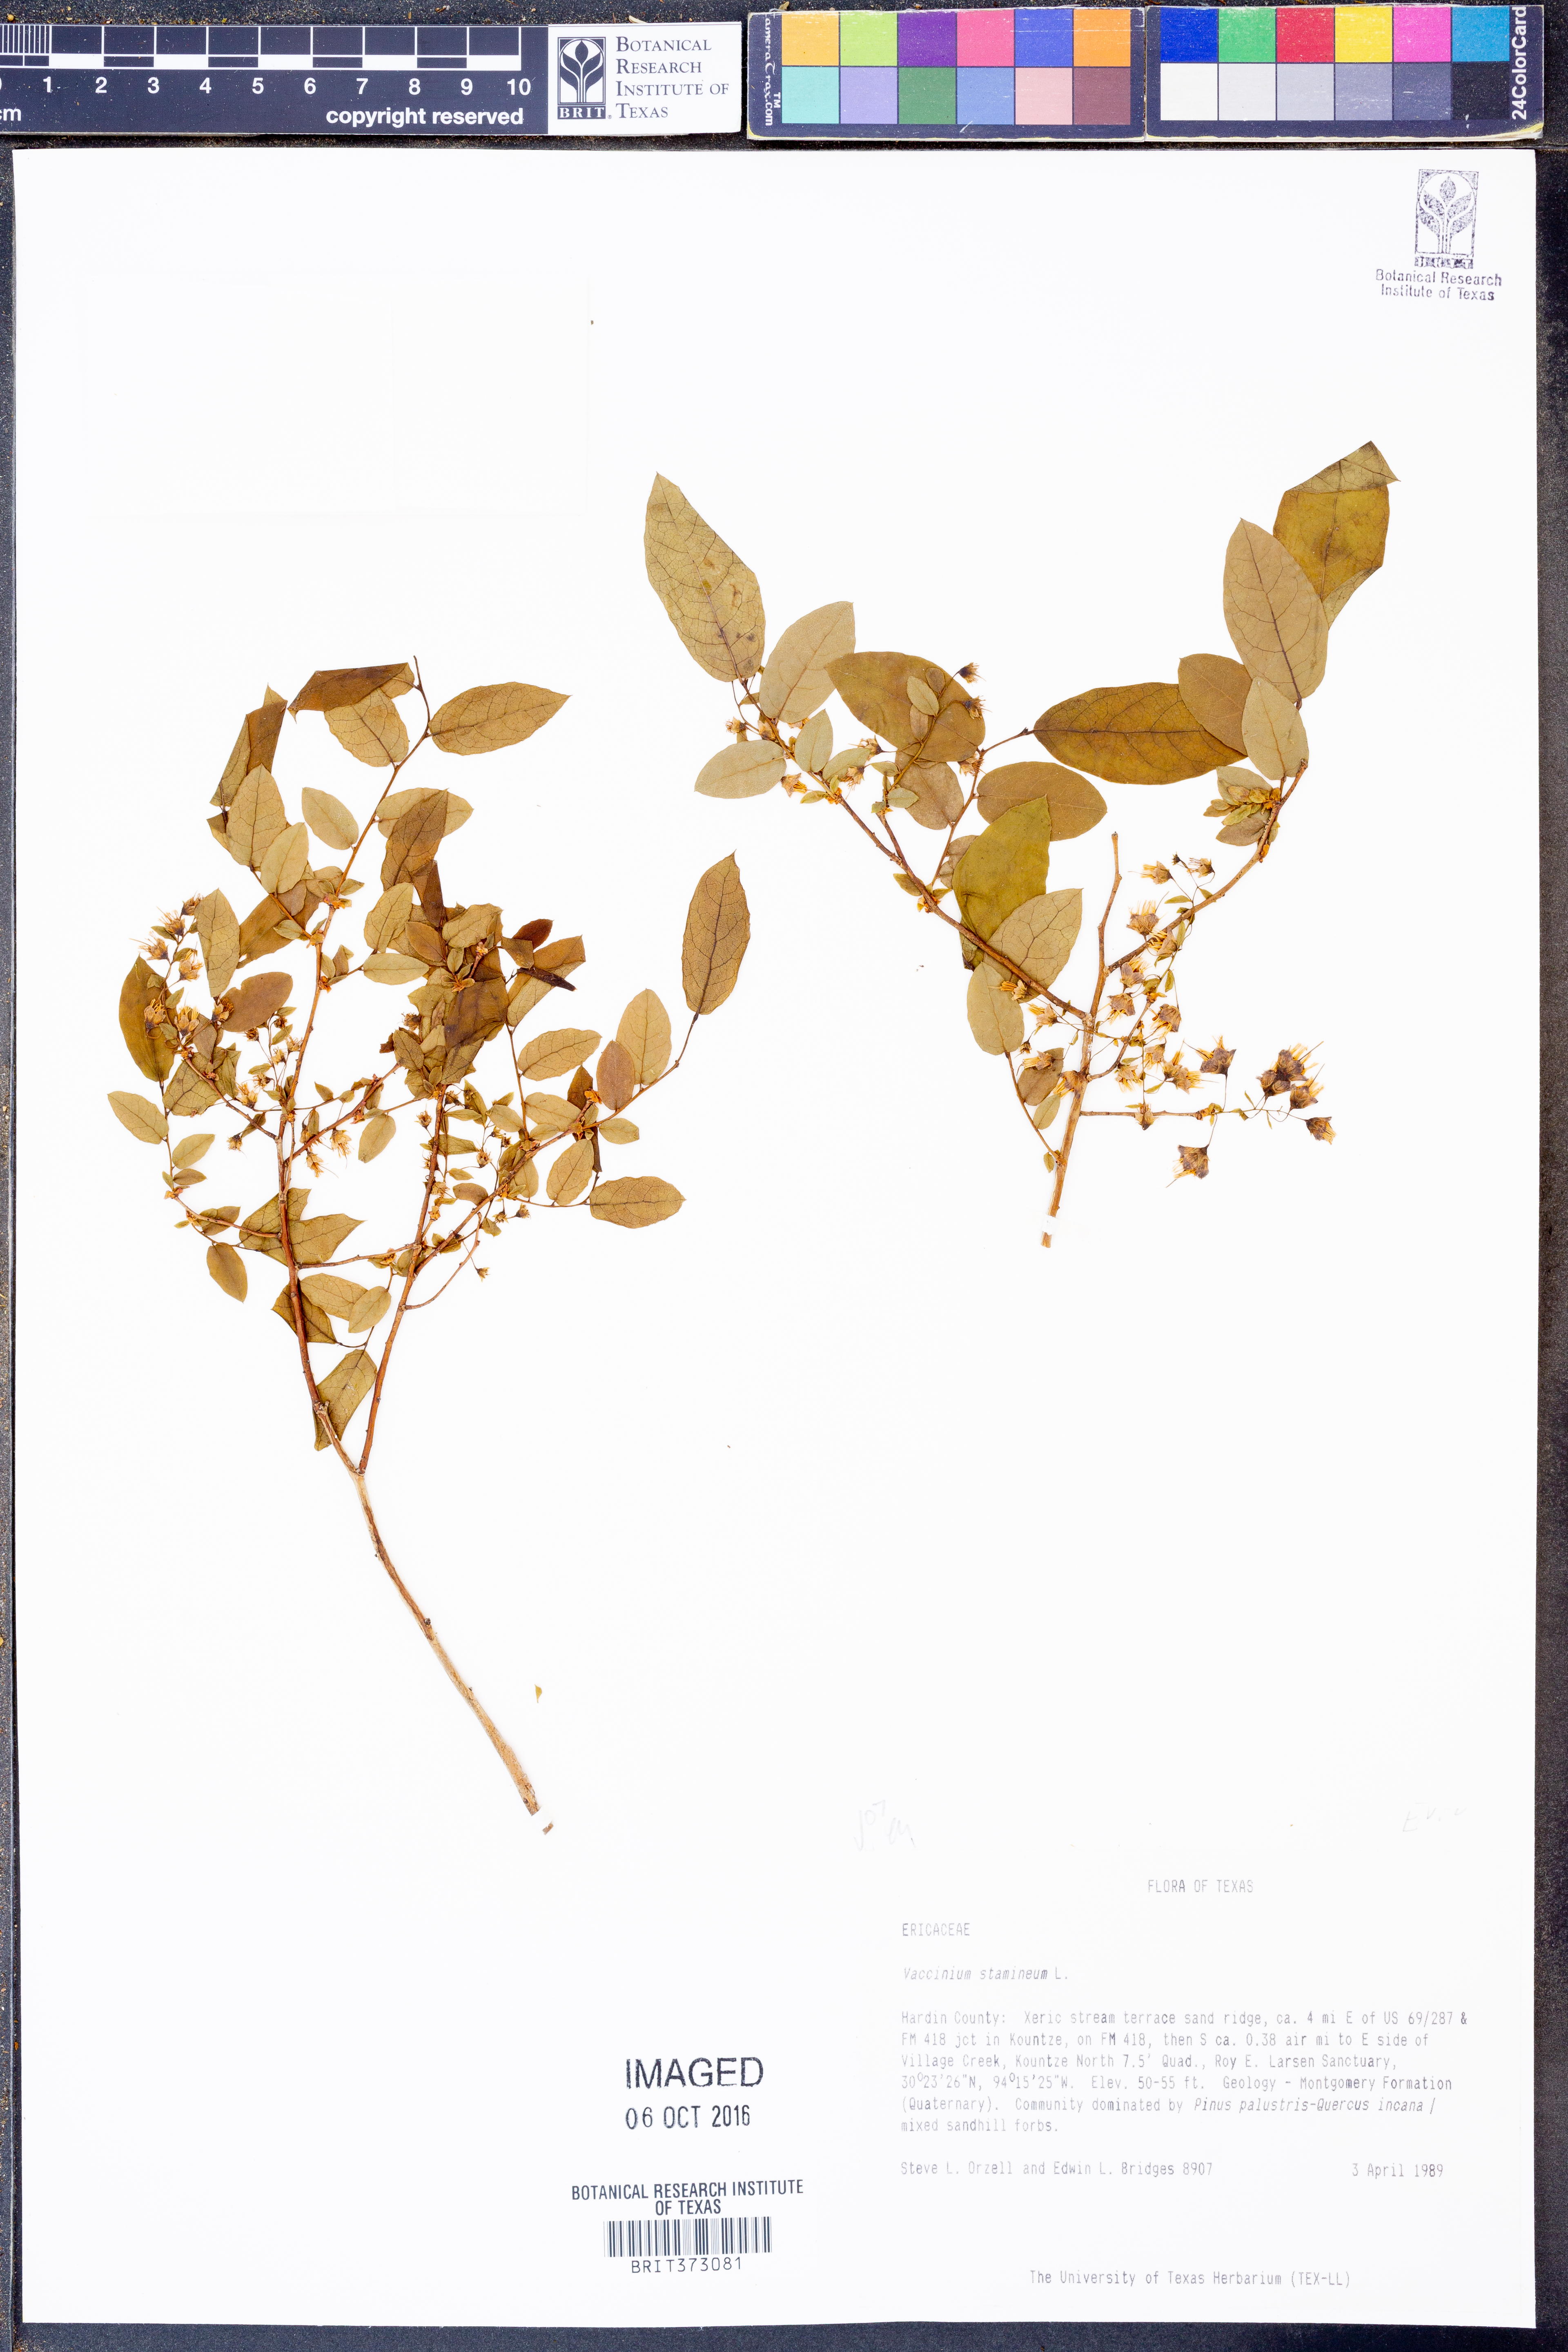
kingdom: Plantae
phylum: Tracheophyta
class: Magnoliopsida
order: Ericales
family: Ericaceae
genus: Vaccinium
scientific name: Vaccinium stamineum
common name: Deerberry
